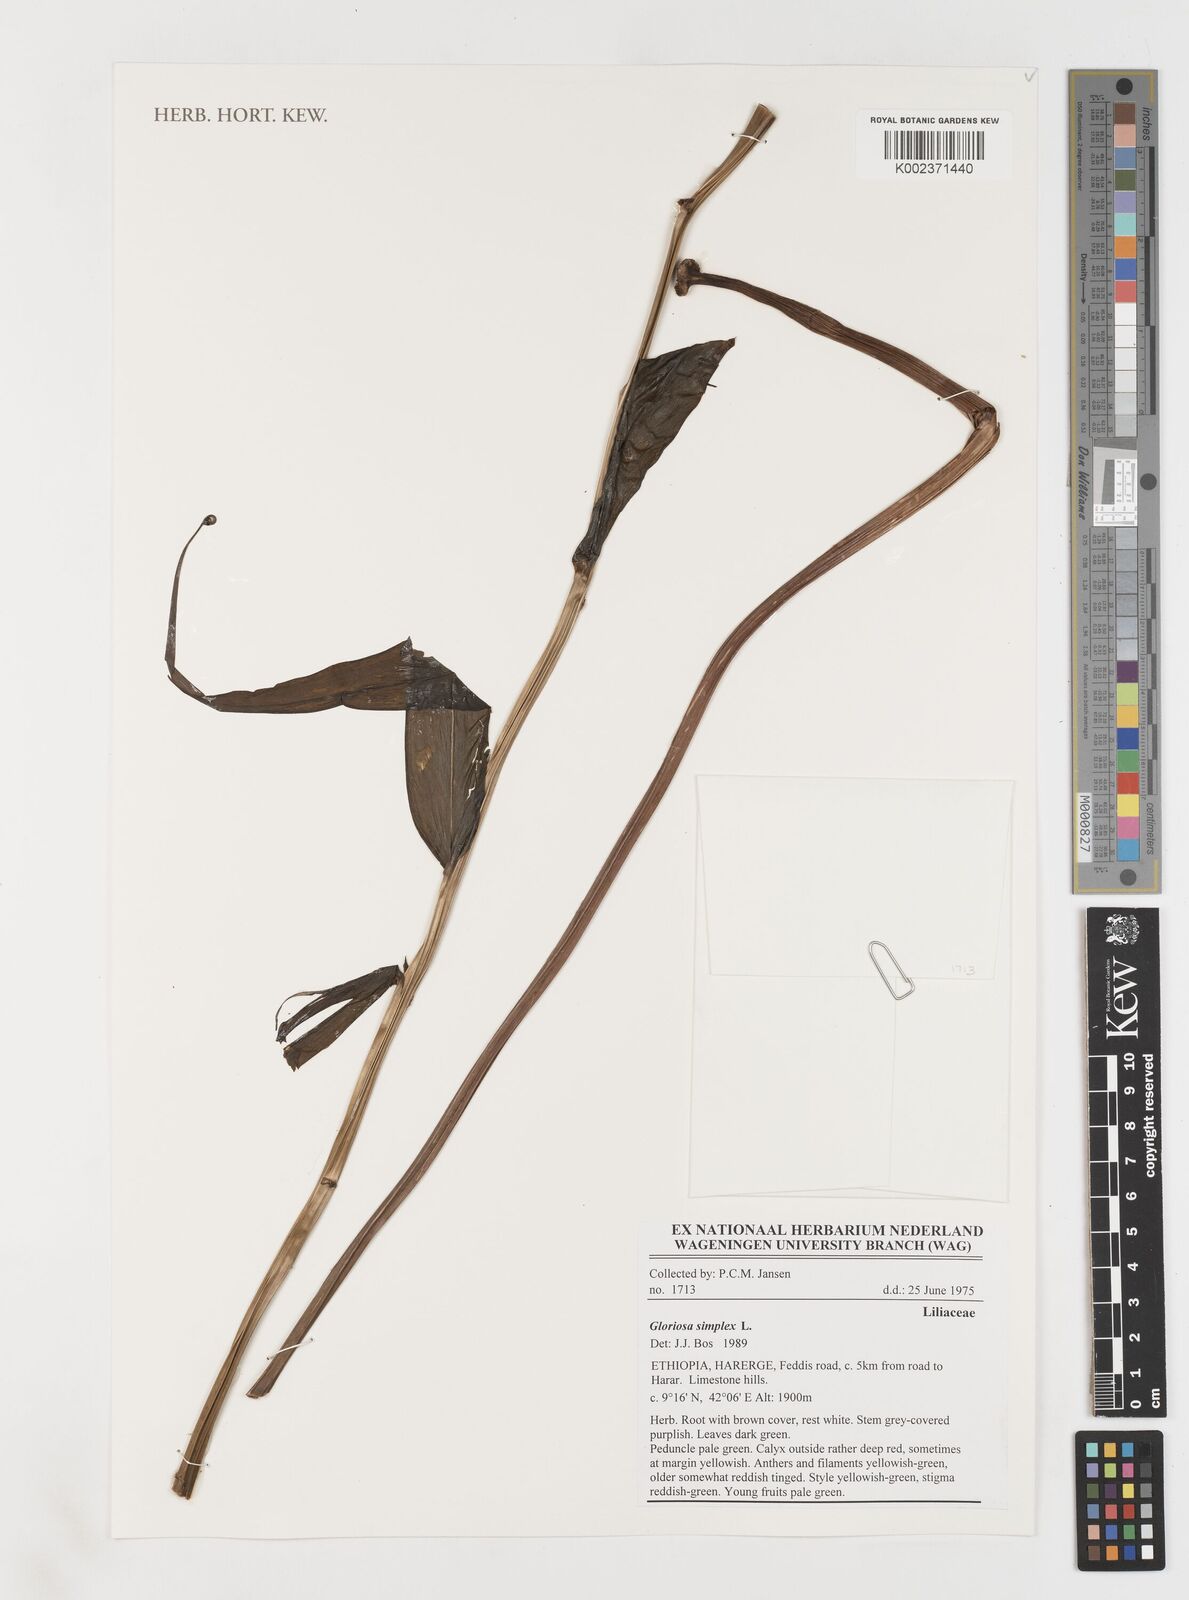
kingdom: Plantae
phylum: Tracheophyta
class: Liliopsida
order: Liliales
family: Colchicaceae
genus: Gloriosa
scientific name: Gloriosa simplex
